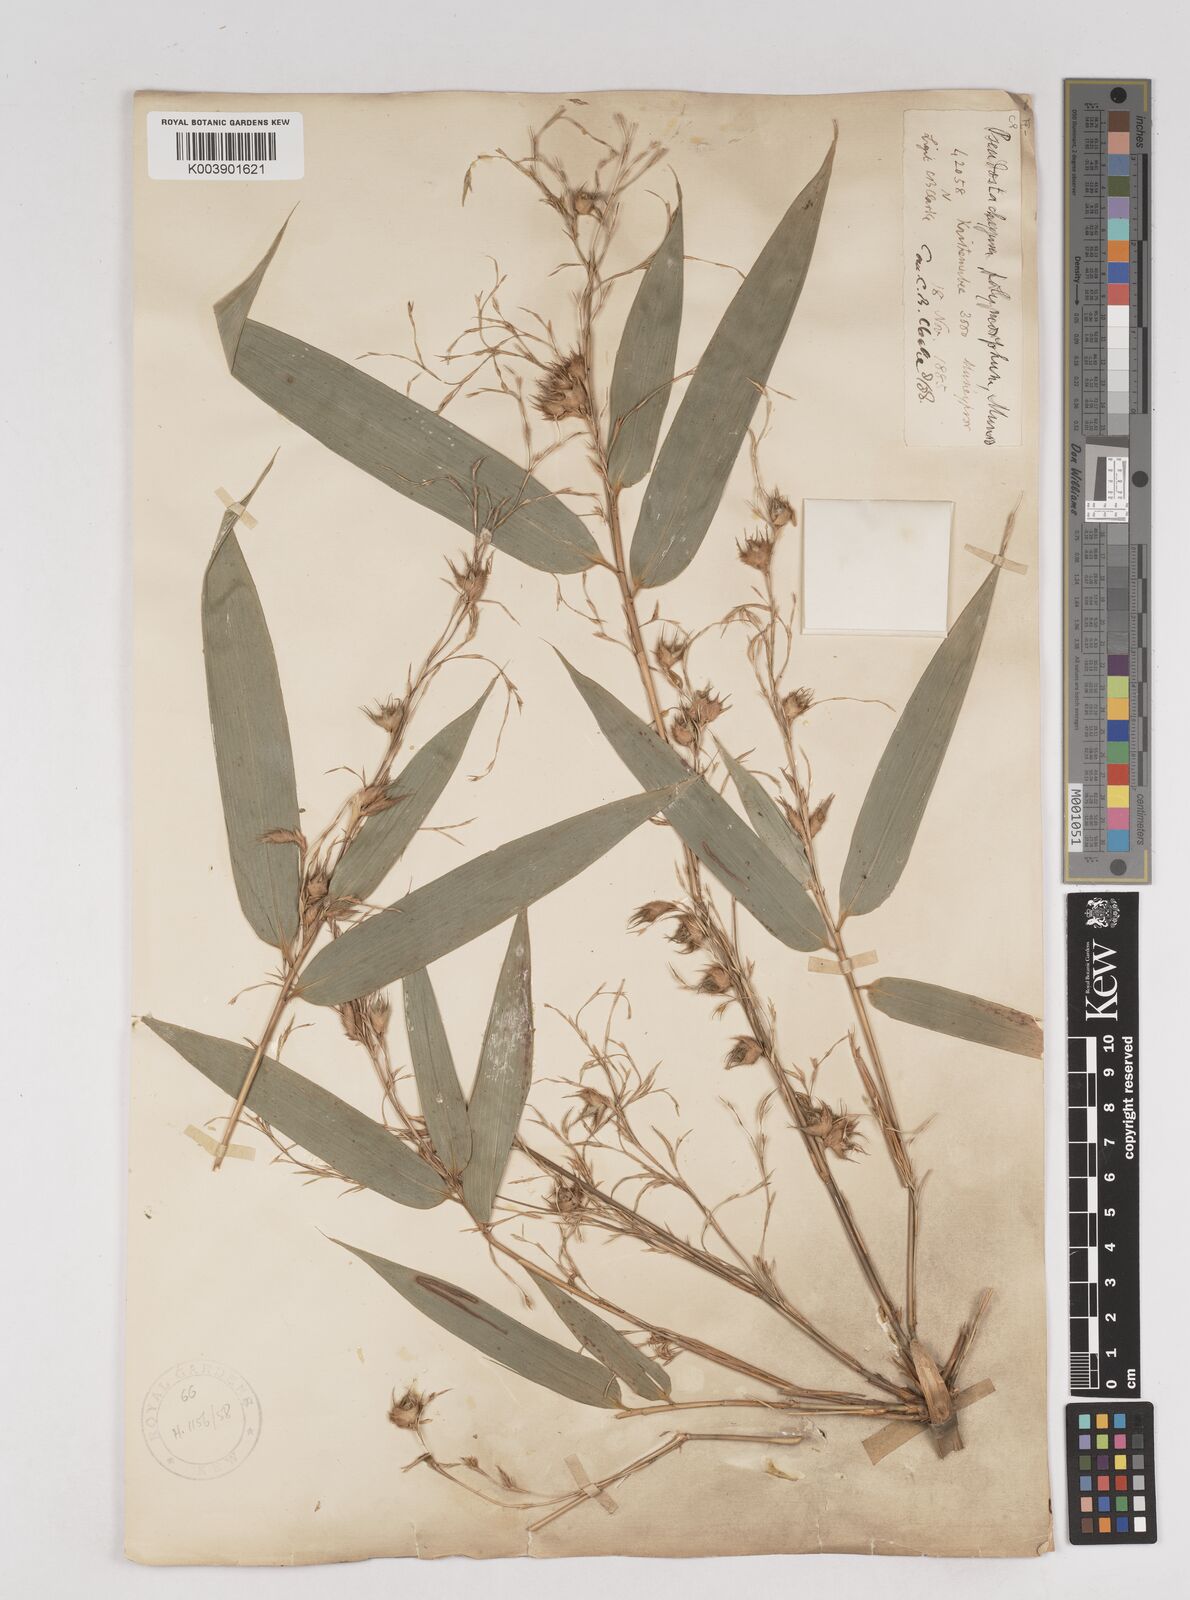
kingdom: Plantae
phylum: Tracheophyta
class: Liliopsida
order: Poales
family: Poaceae
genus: Pseudostachyum
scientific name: Pseudostachyum polymorphum
